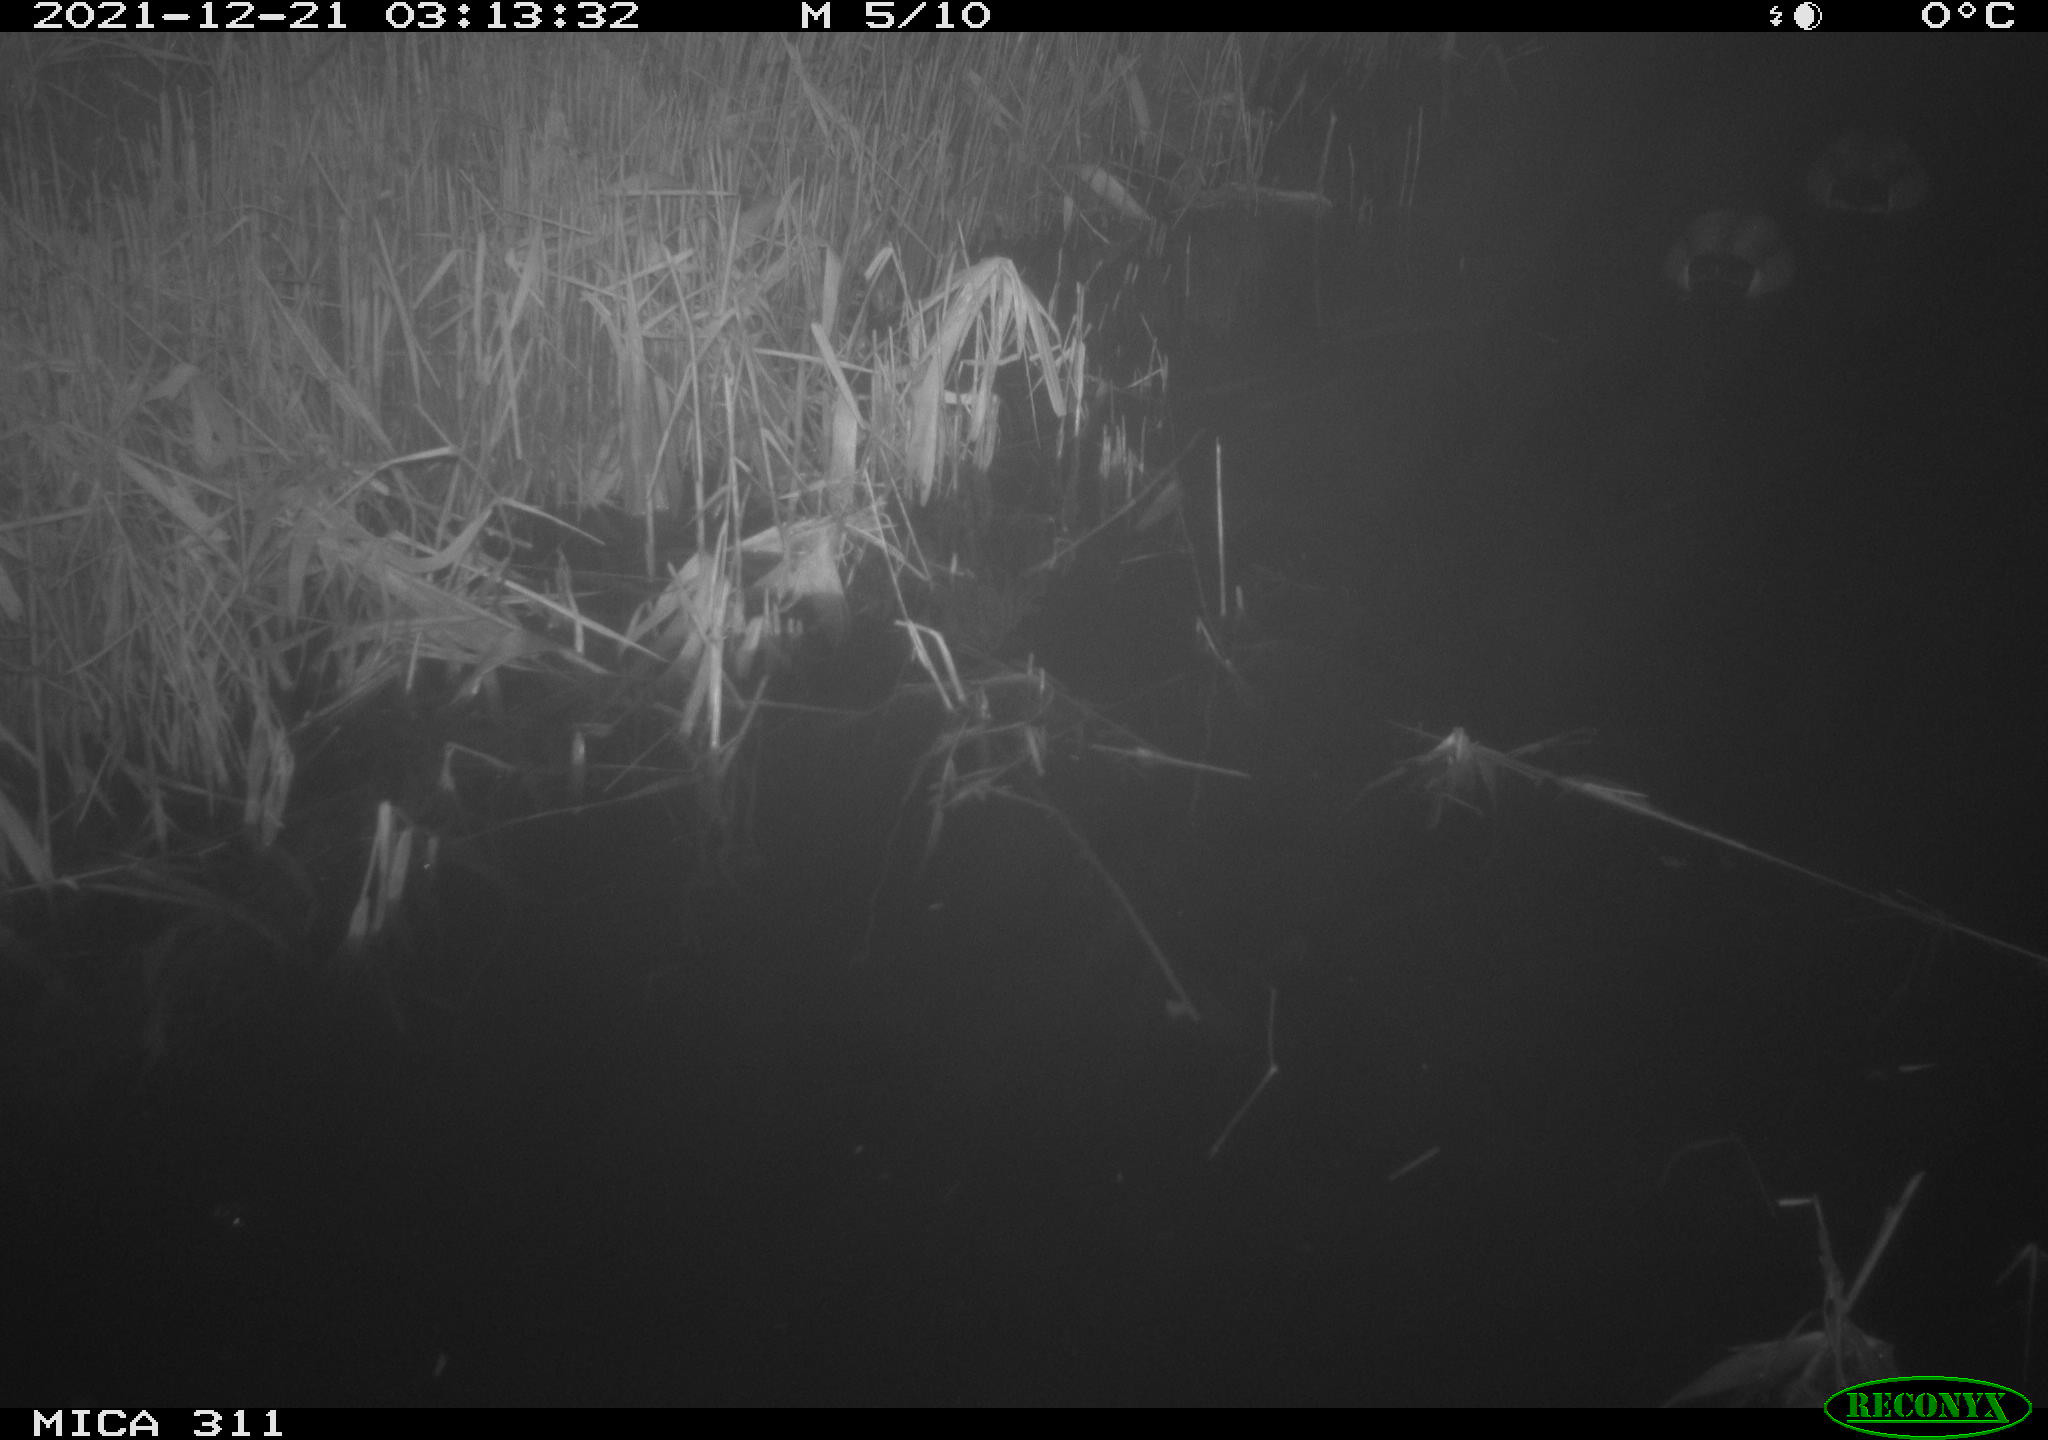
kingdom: Animalia
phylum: Chordata
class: Mammalia
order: Rodentia
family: Muridae
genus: Rattus
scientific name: Rattus norvegicus
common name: Brown rat
